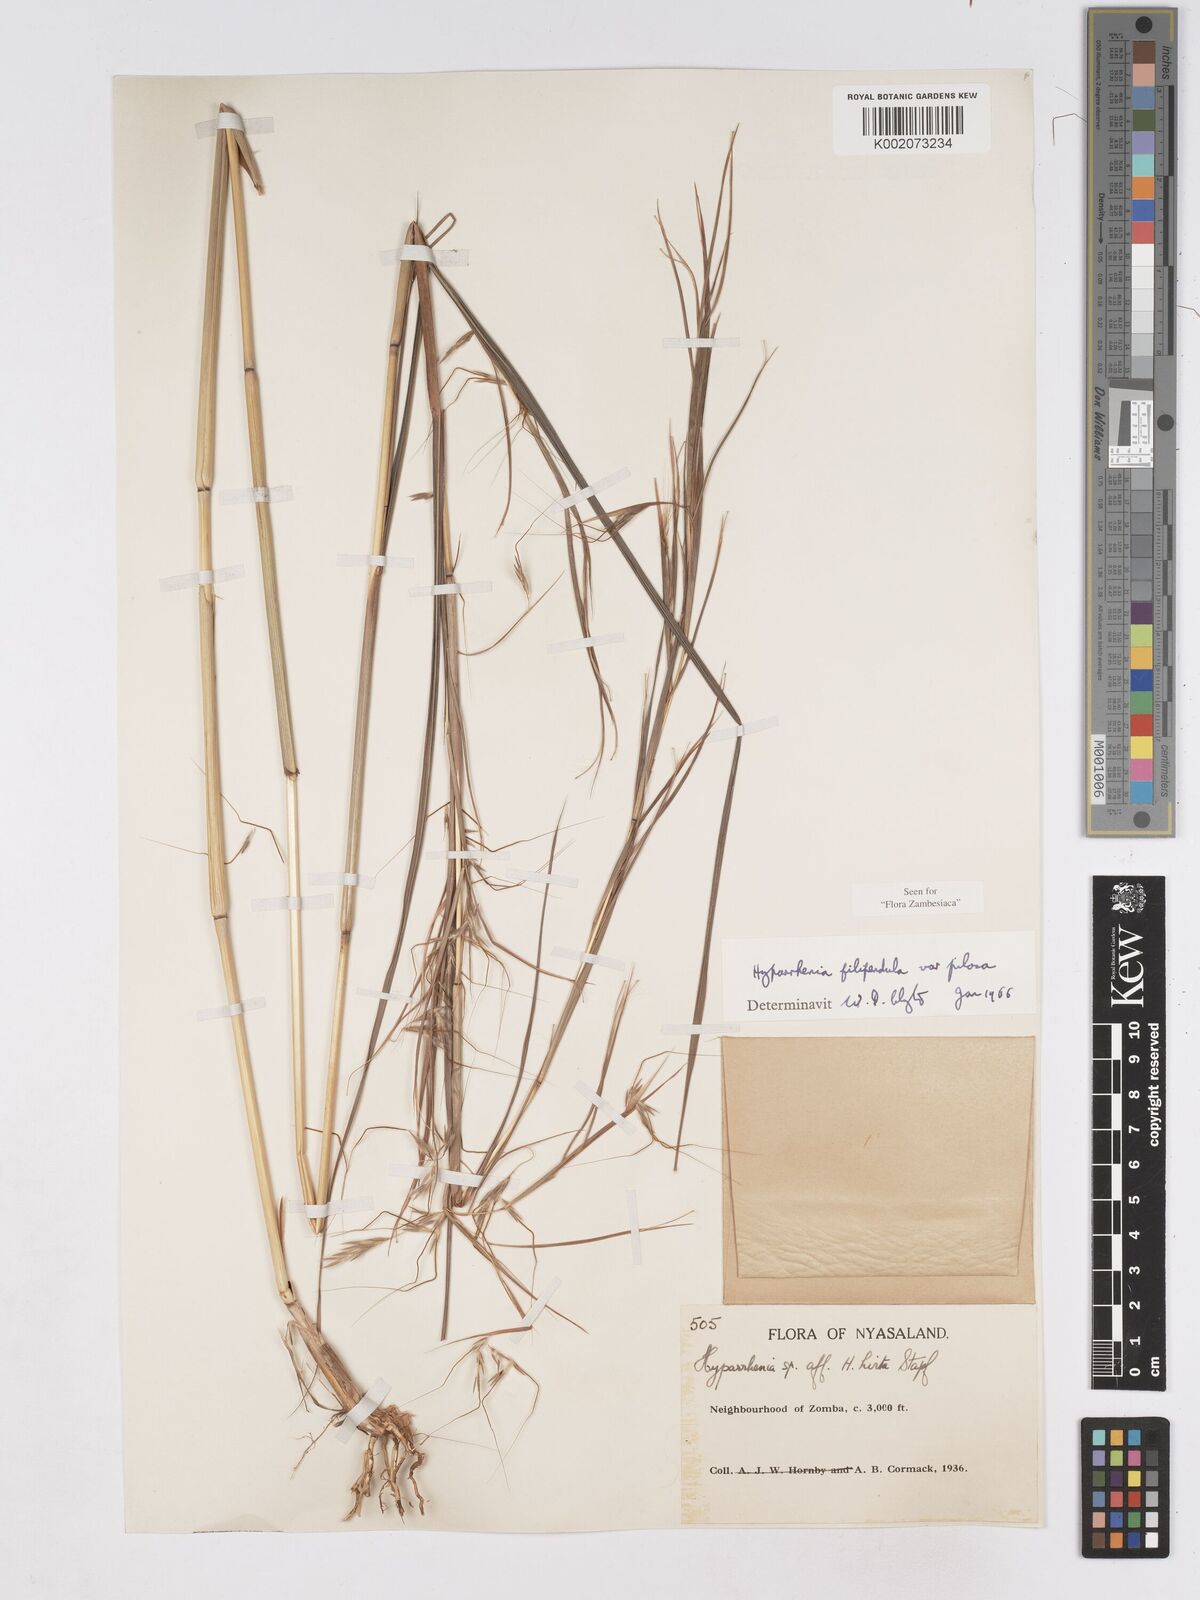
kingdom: Plantae
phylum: Tracheophyta
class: Liliopsida
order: Poales
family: Poaceae
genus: Hyparrhenia
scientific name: Hyparrhenia filipendula
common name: Tambookie grass
